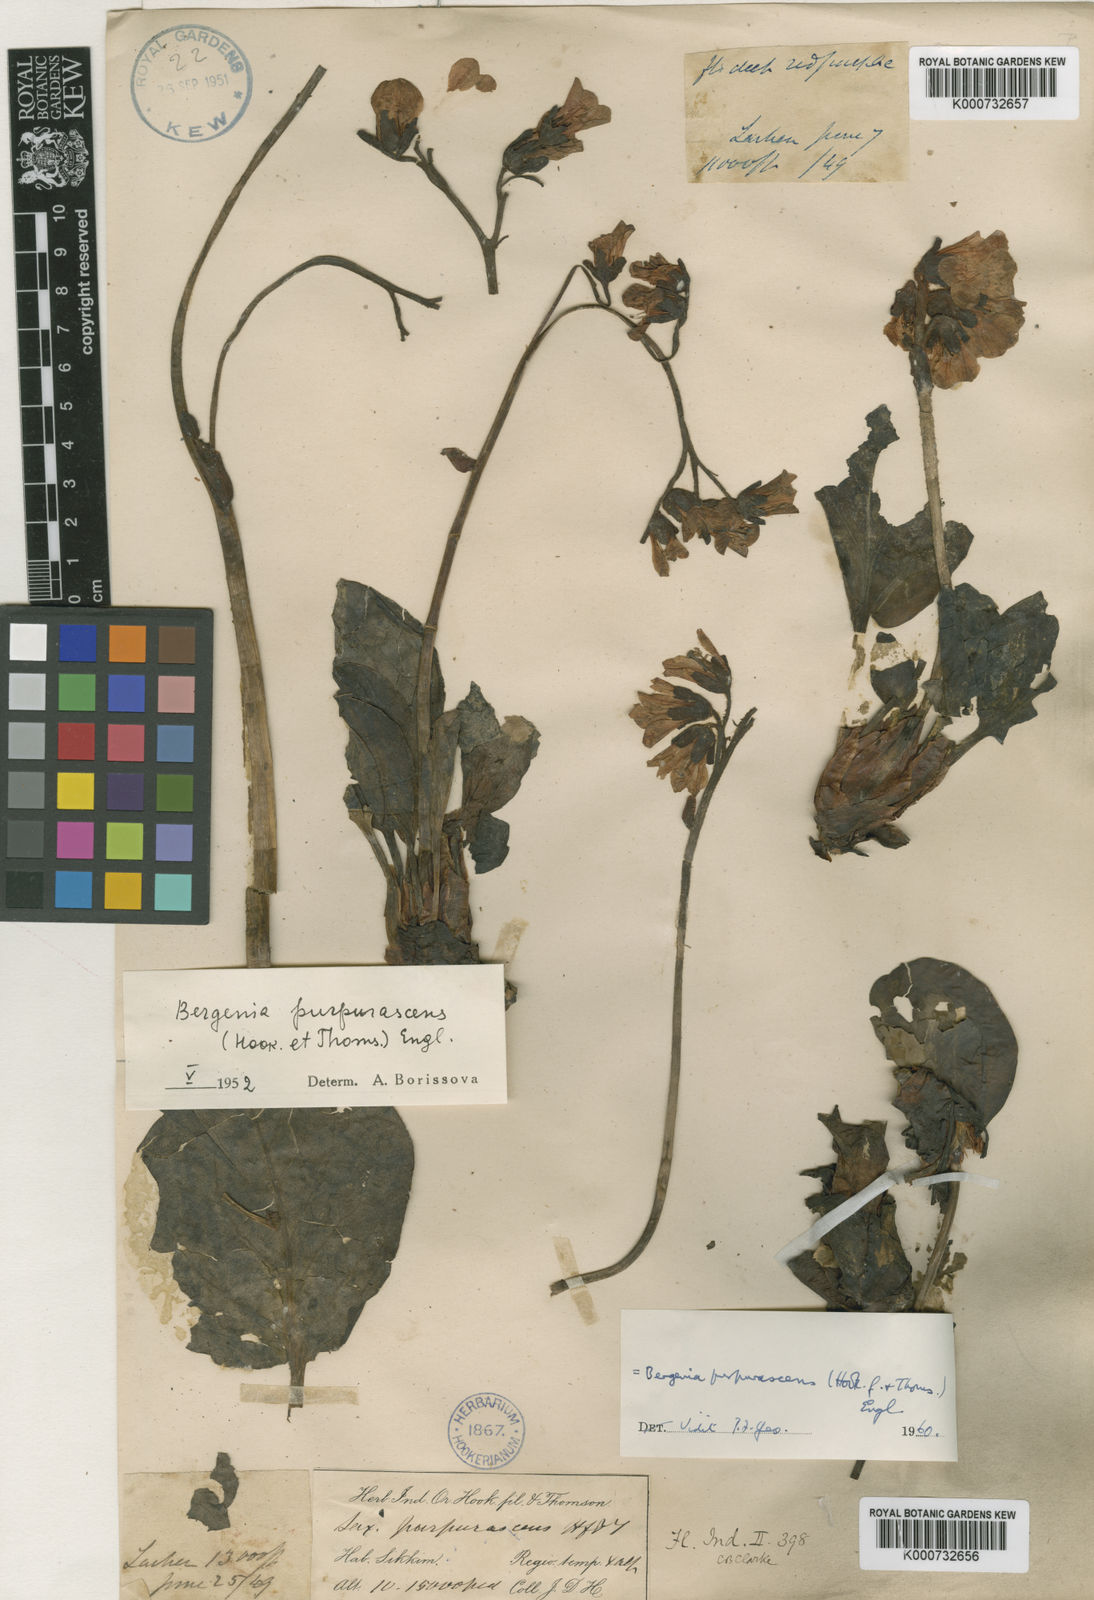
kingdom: Plantae
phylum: Tracheophyta
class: Magnoliopsida
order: Saxifragales
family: Saxifragaceae
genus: Bergenia
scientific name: Bergenia purpurascens
